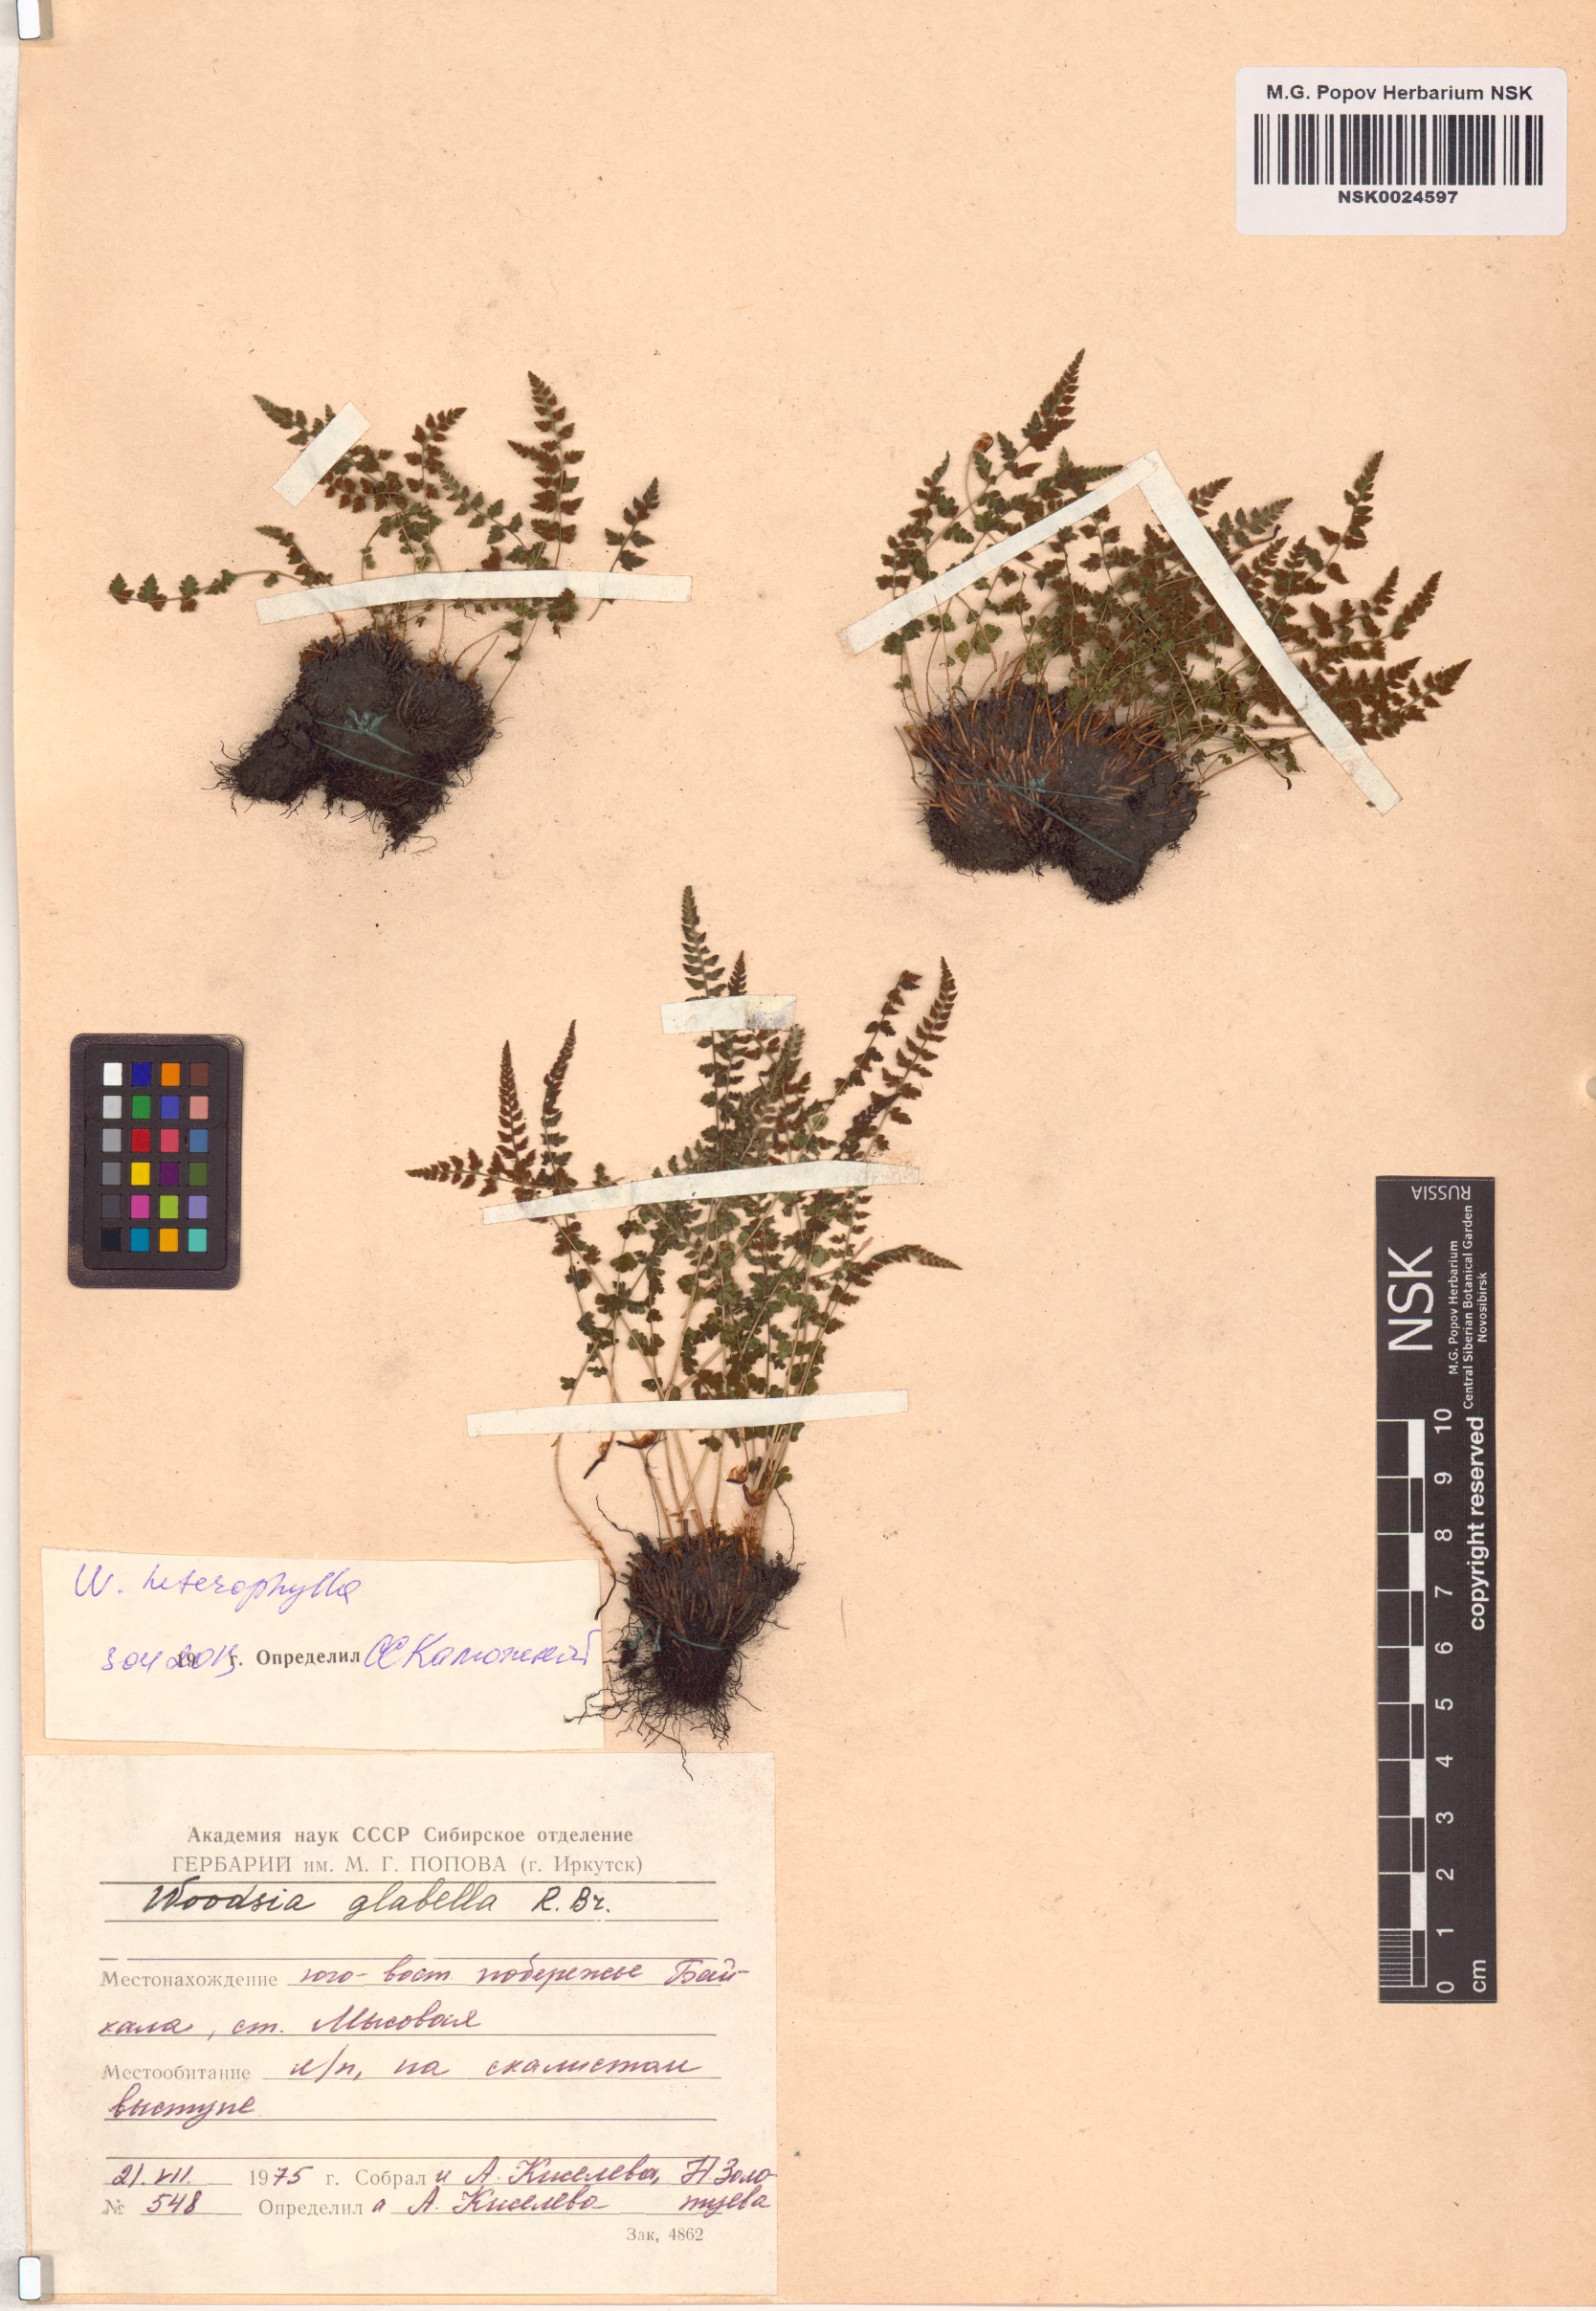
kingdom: Plantae
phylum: Tracheophyta
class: Polypodiopsida
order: Polypodiales
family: Woodsiaceae
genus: Woodsia
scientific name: Woodsia pulchella
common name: Graceful woodsia
